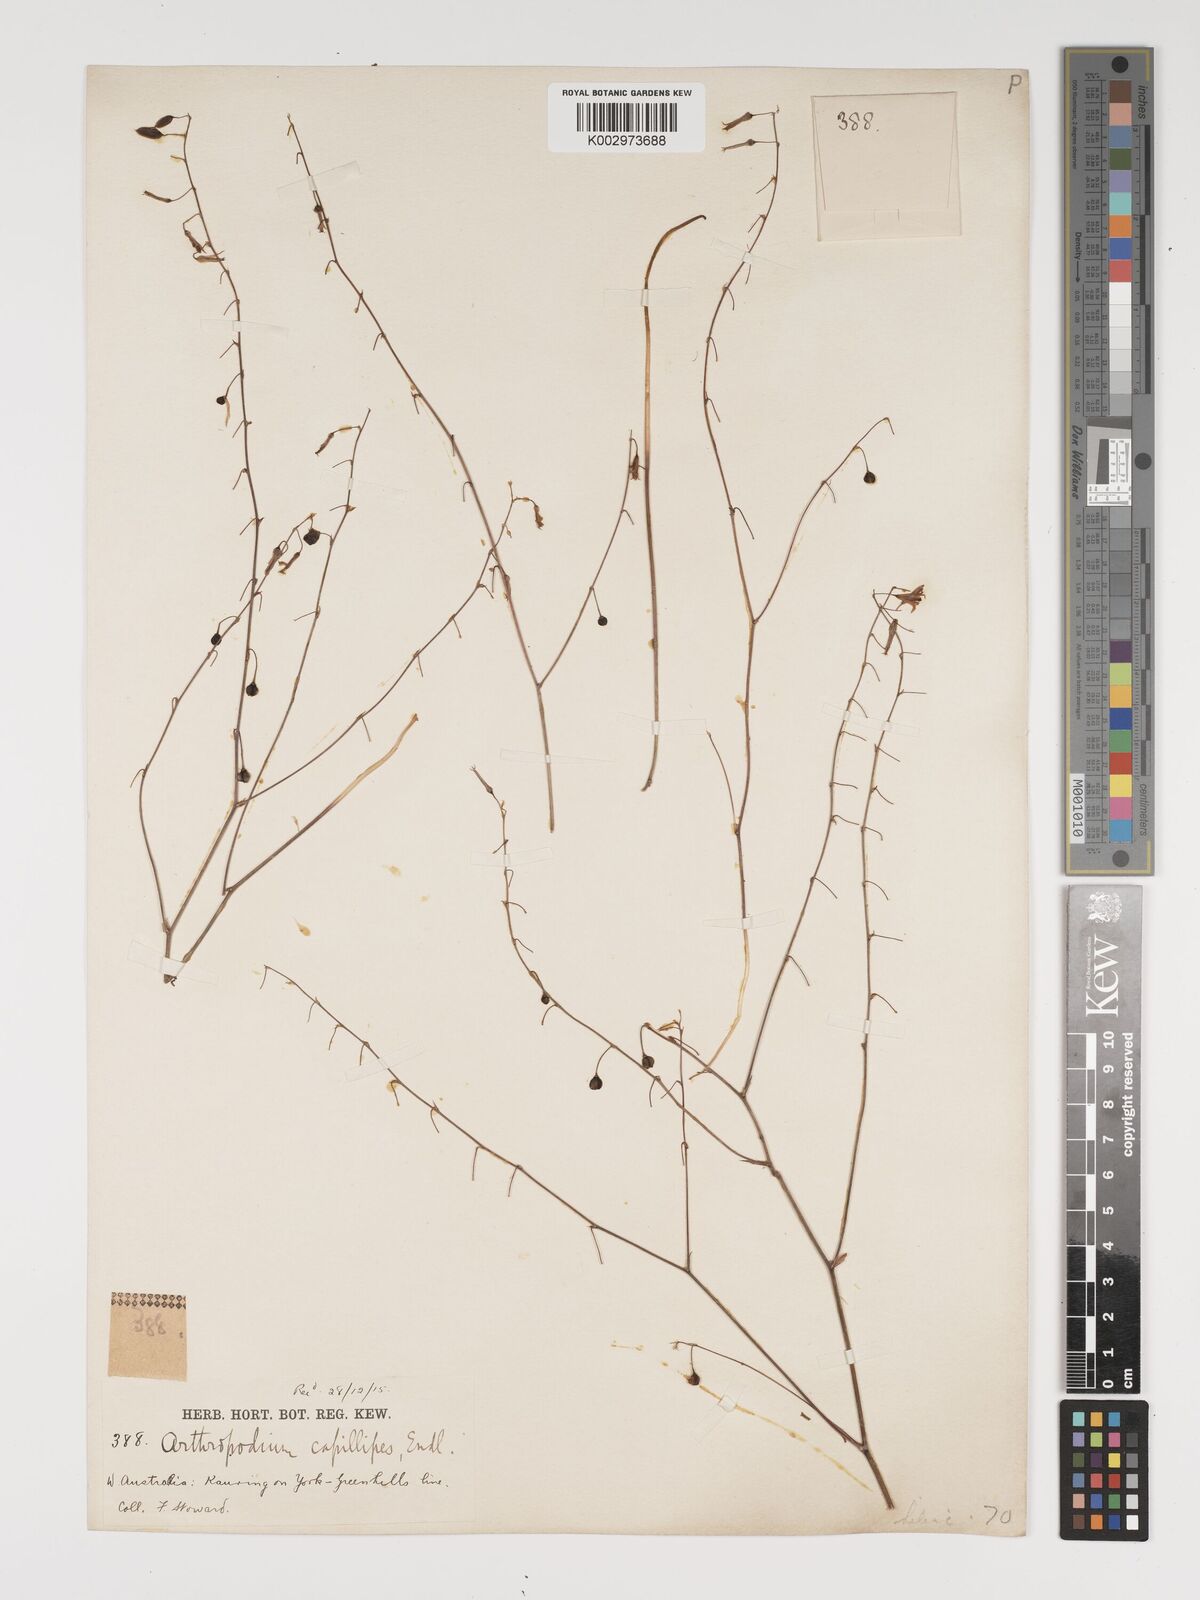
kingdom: Plantae
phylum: Tracheophyta
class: Liliopsida
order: Asparagales
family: Asparagaceae
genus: Dichopogon
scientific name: Dichopogon preissii
